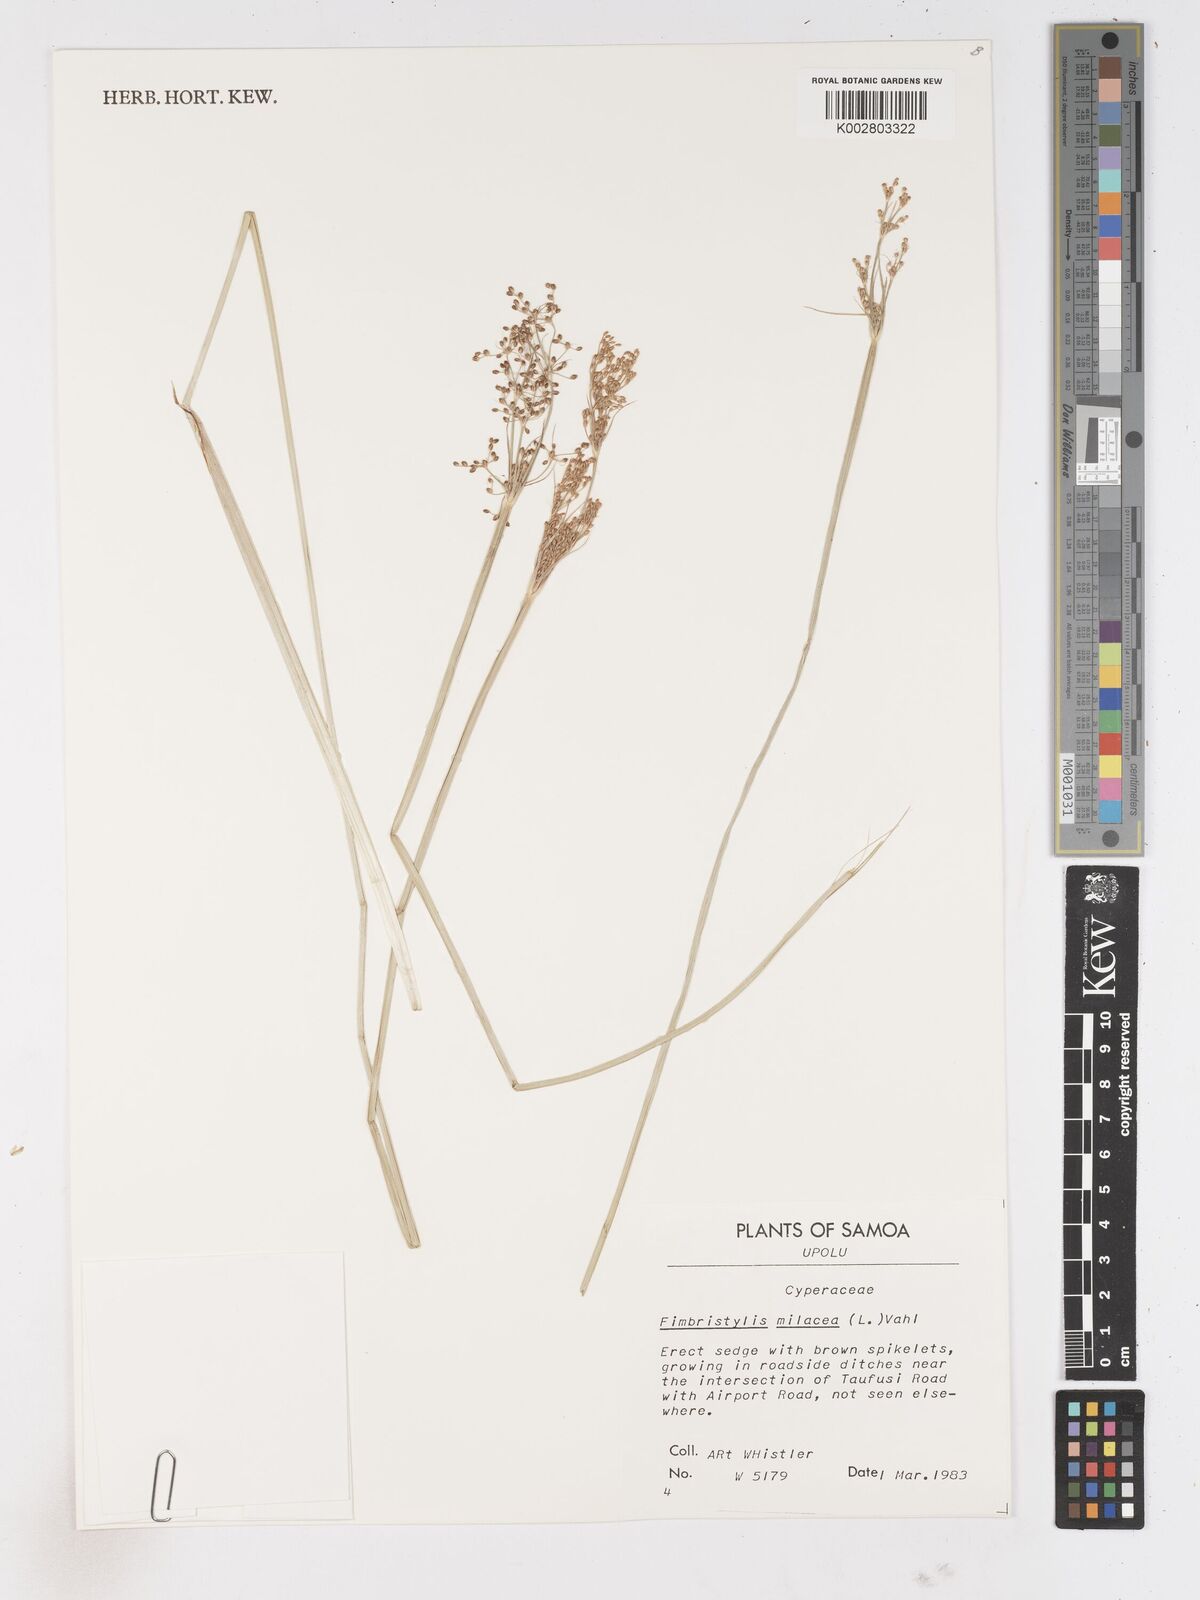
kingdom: Plantae
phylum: Tracheophyta
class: Liliopsida
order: Poales
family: Cyperaceae
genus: Fimbristylis
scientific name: Fimbristylis quinquangularis
